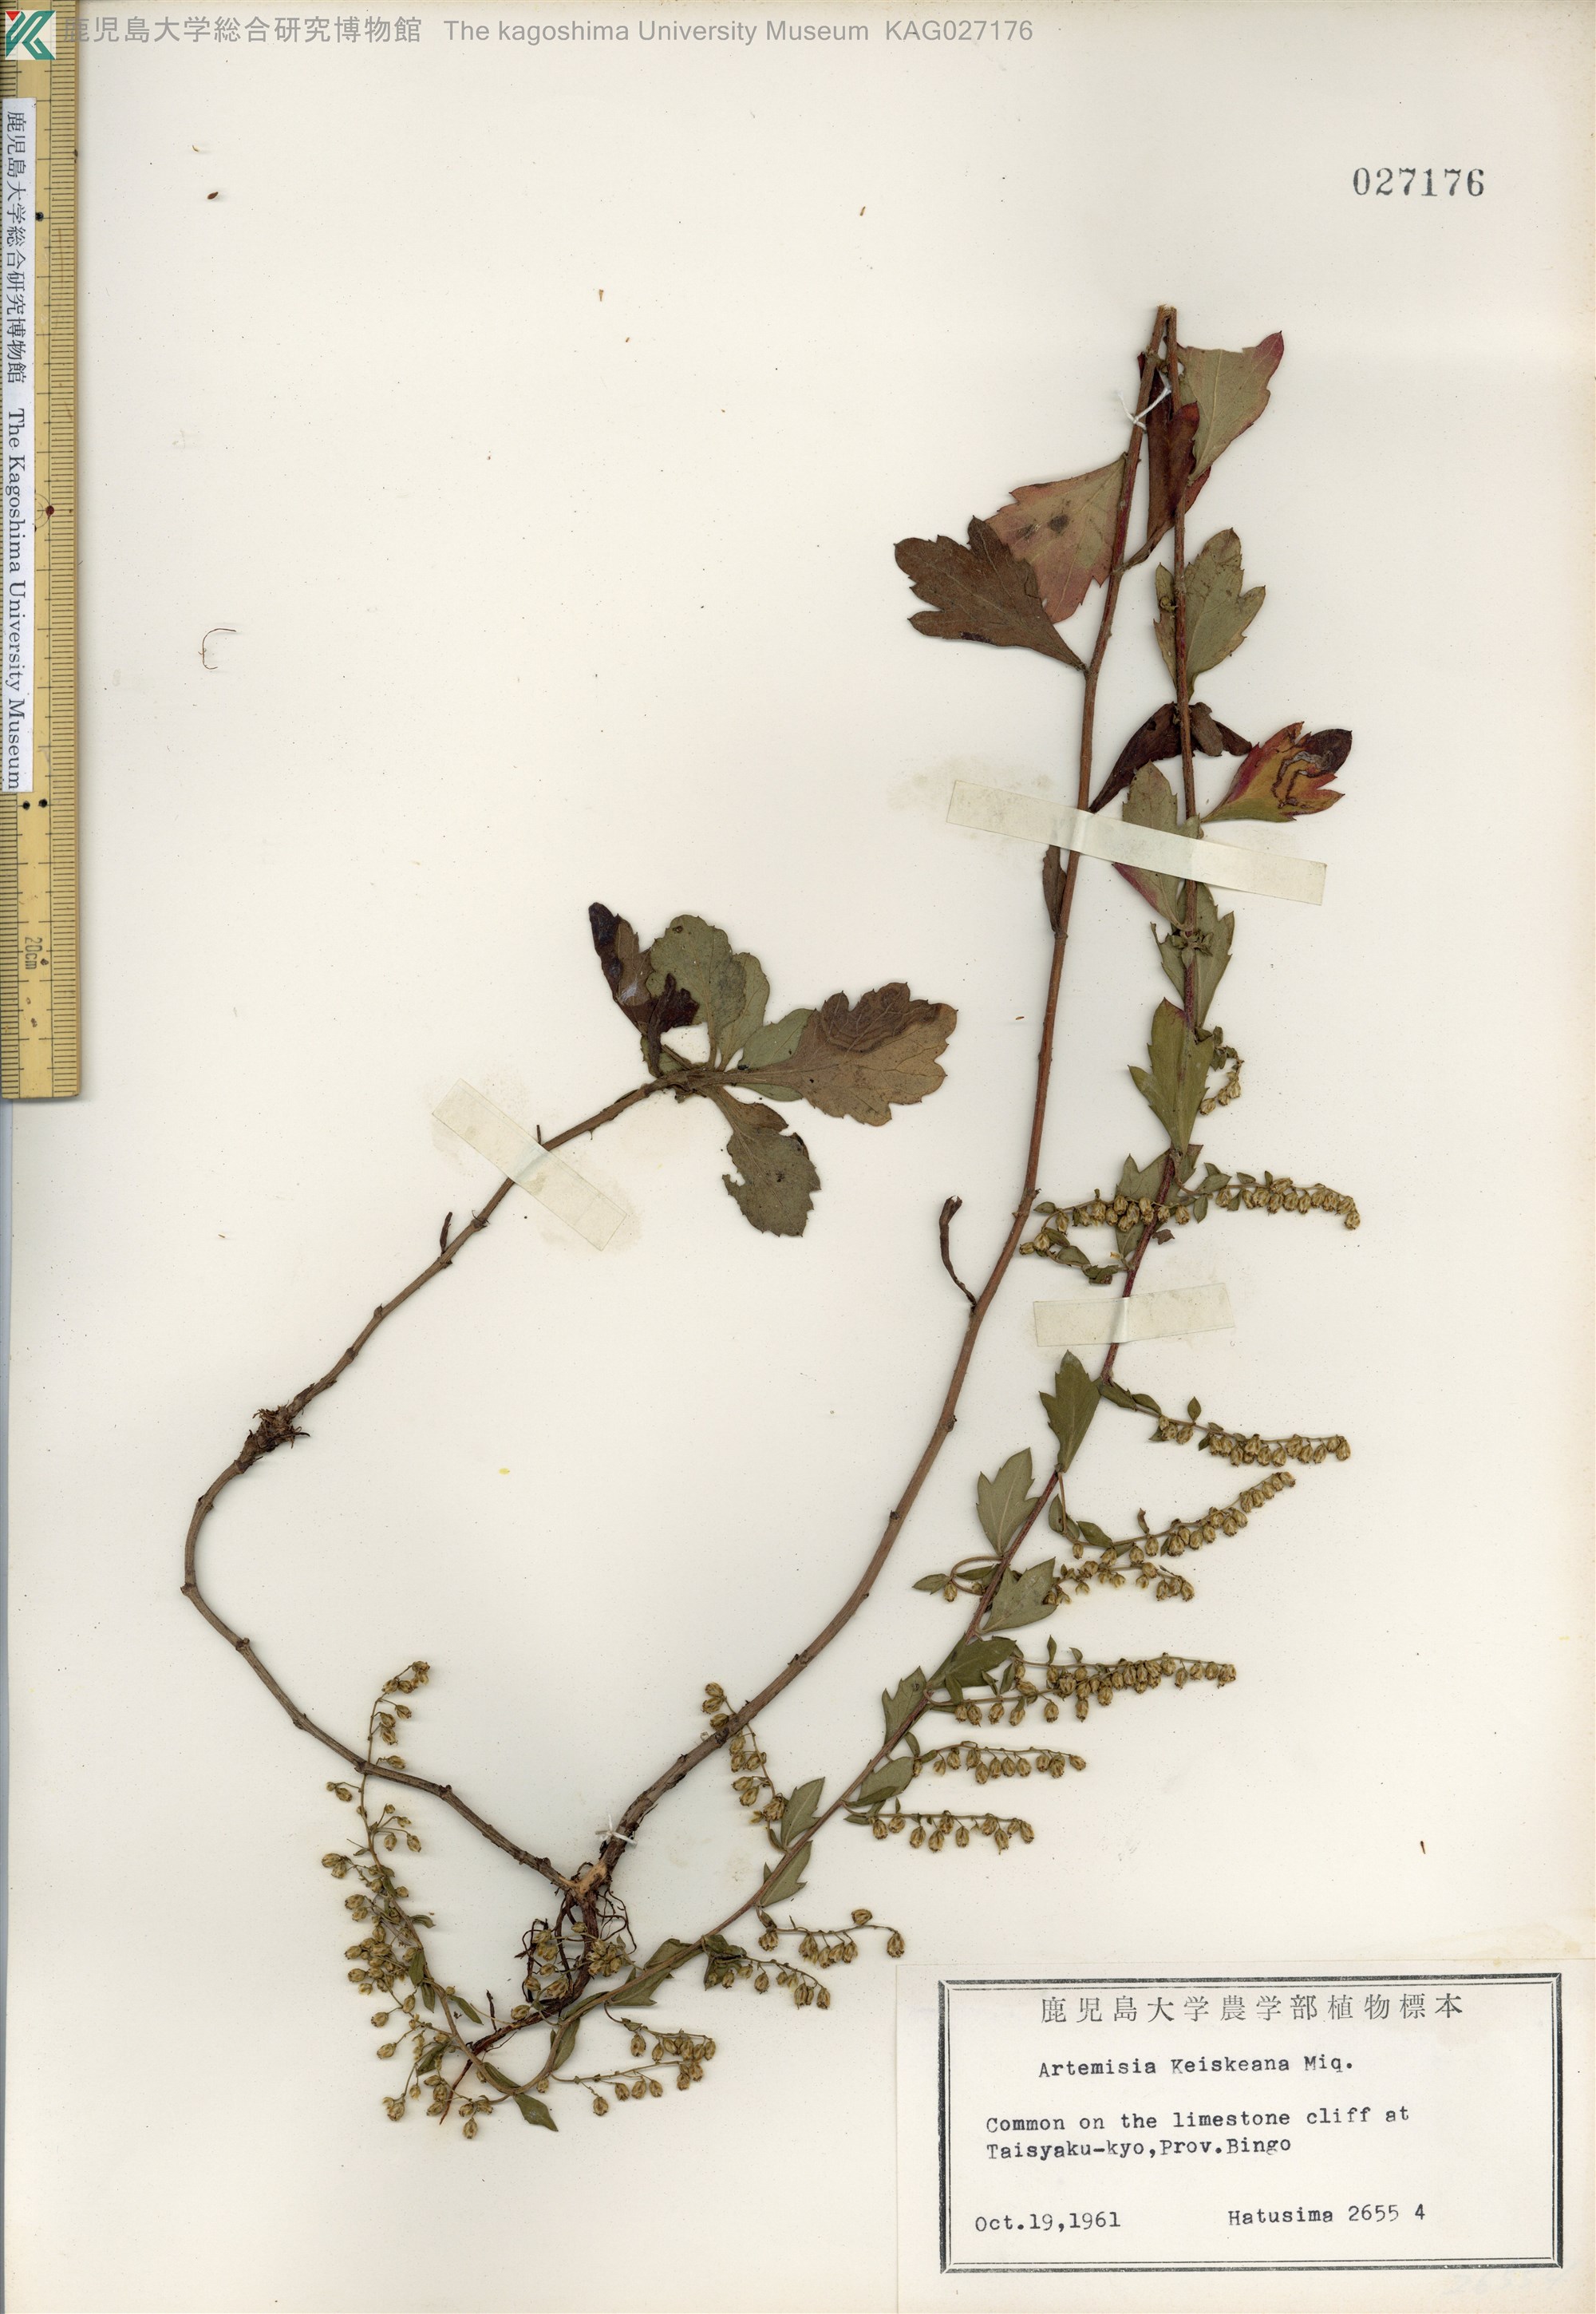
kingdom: Plantae
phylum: Tracheophyta
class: Magnoliopsida
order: Asterales
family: Asteraceae
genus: Artemisia
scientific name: Artemisia keiskeana
